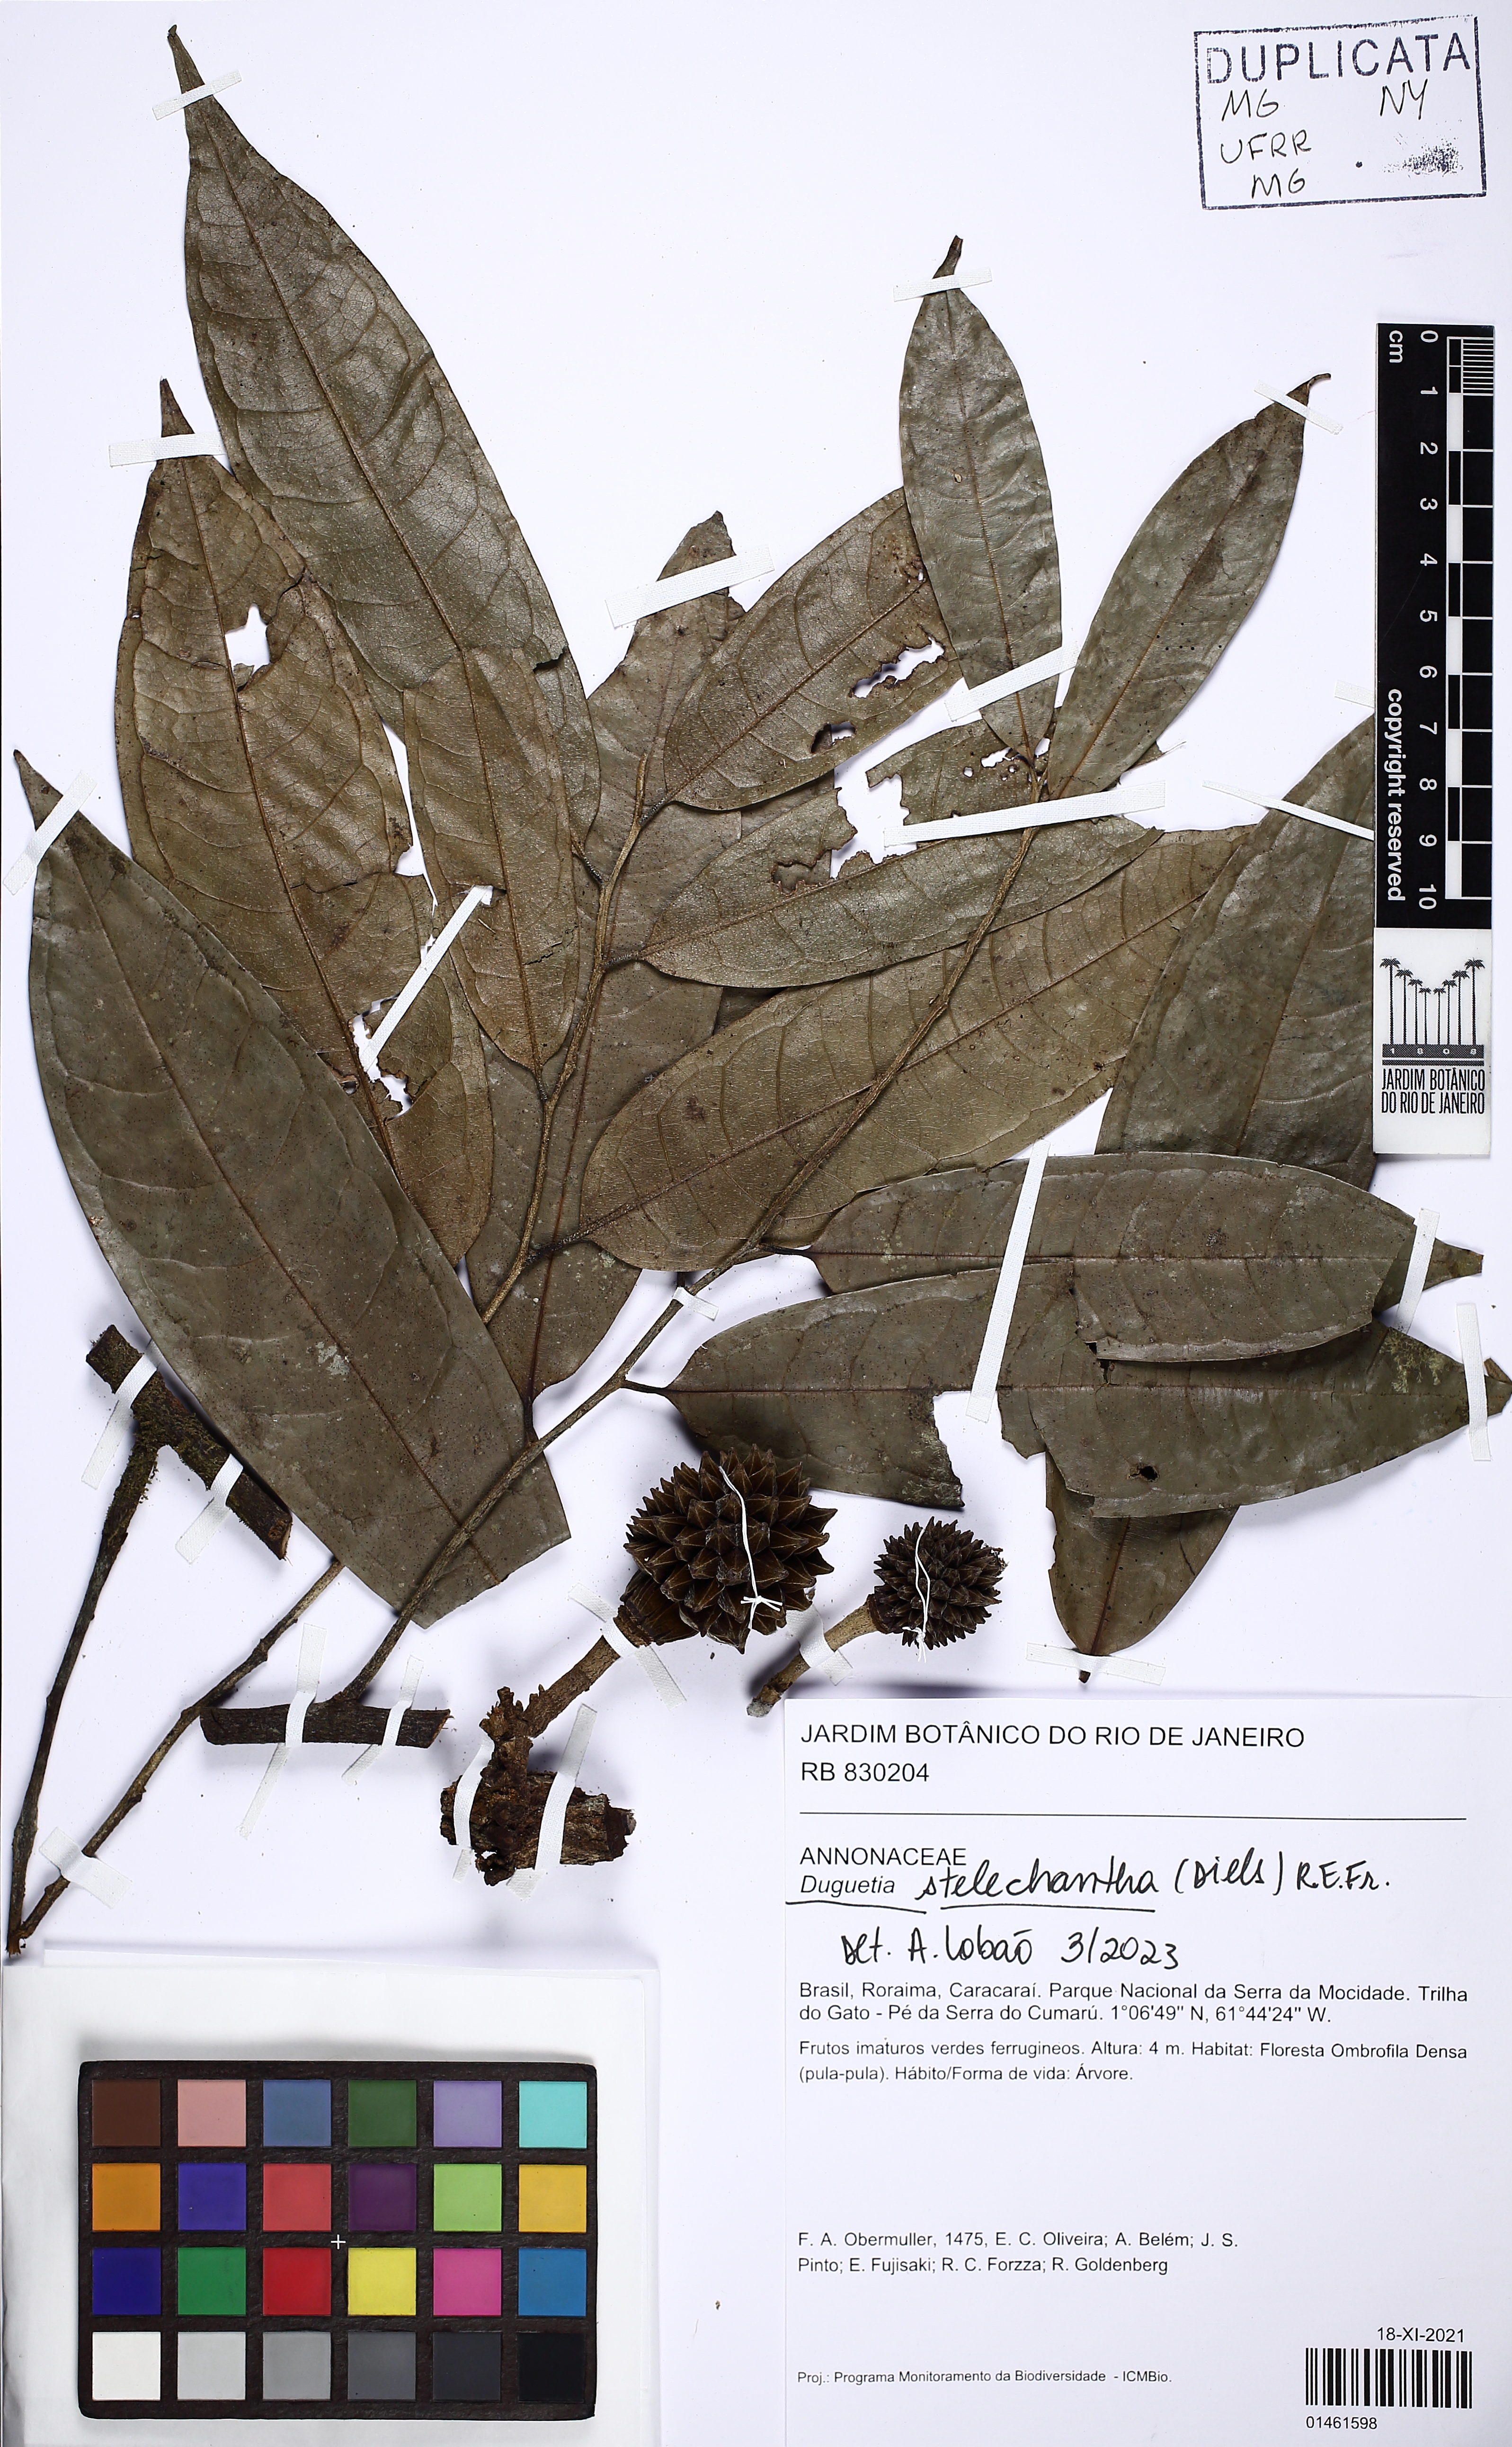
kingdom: Plantae
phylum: Tracheophyta
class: Magnoliopsida
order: Magnoliales
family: Annonaceae
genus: Duguetia
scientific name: Duguetia stelechantha
